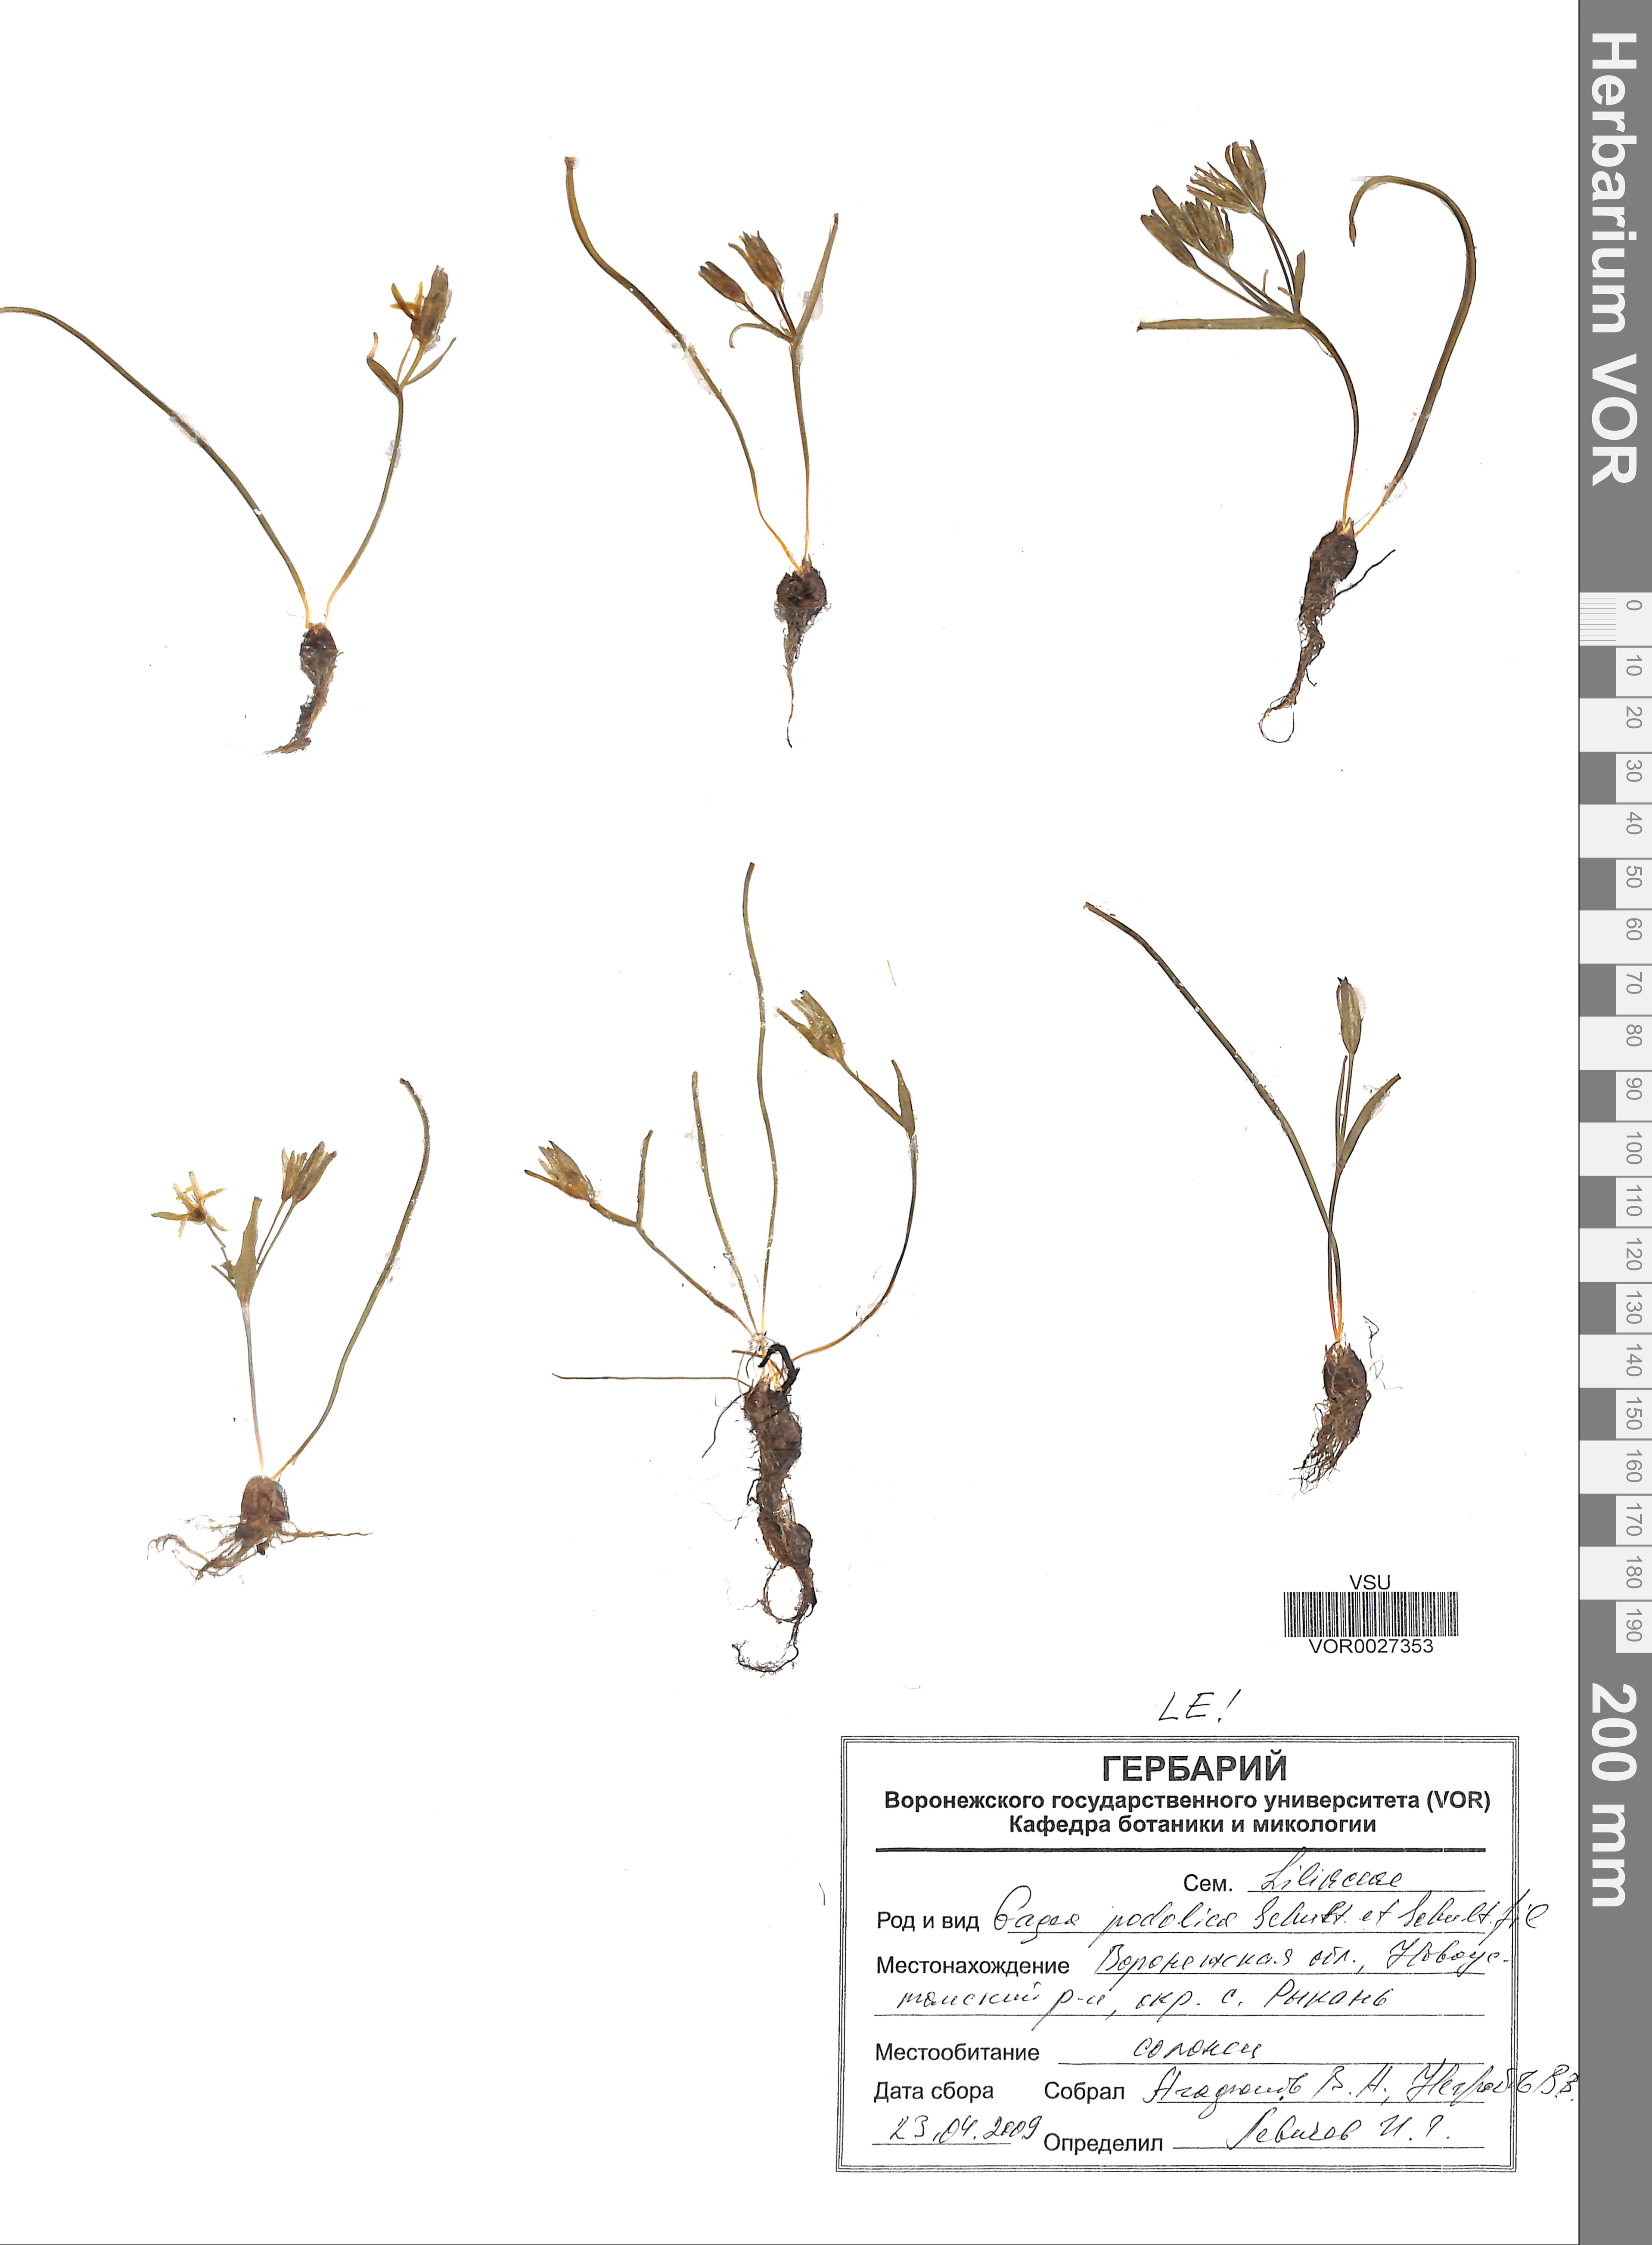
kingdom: Plantae
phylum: Tracheophyta
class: Liliopsida
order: Liliales
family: Liliaceae
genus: Gagea
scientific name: Gagea podolica
